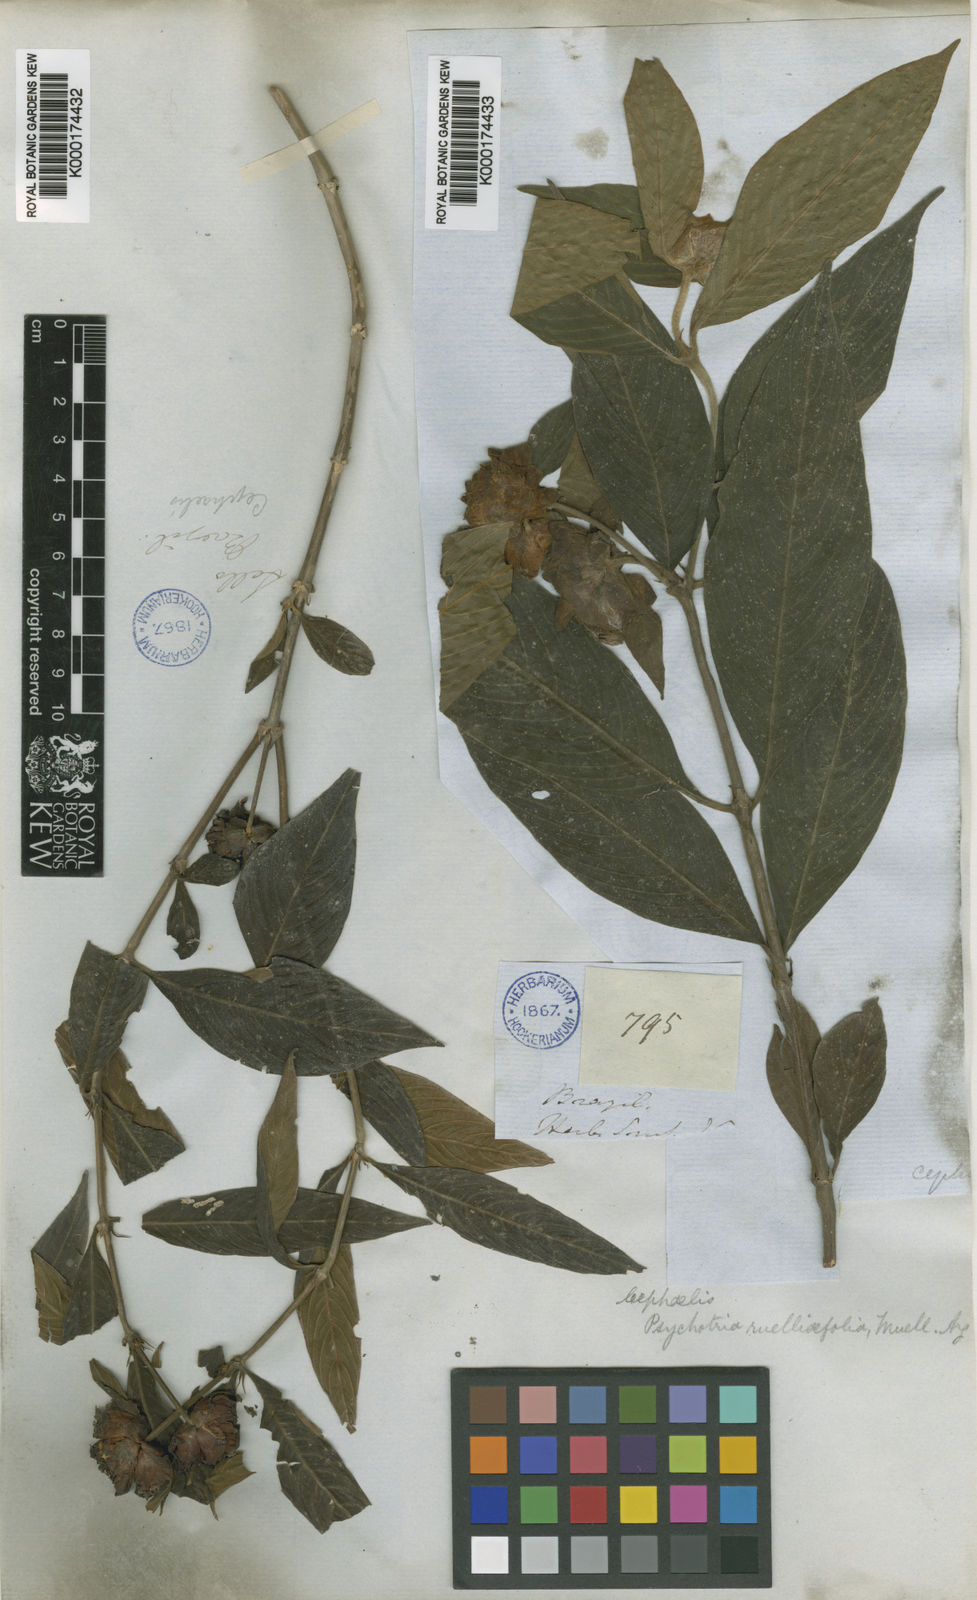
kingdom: Plantae
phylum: Tracheophyta
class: Magnoliopsida
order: Gentianales
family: Rubiaceae
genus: Psychotria
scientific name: Psychotria
